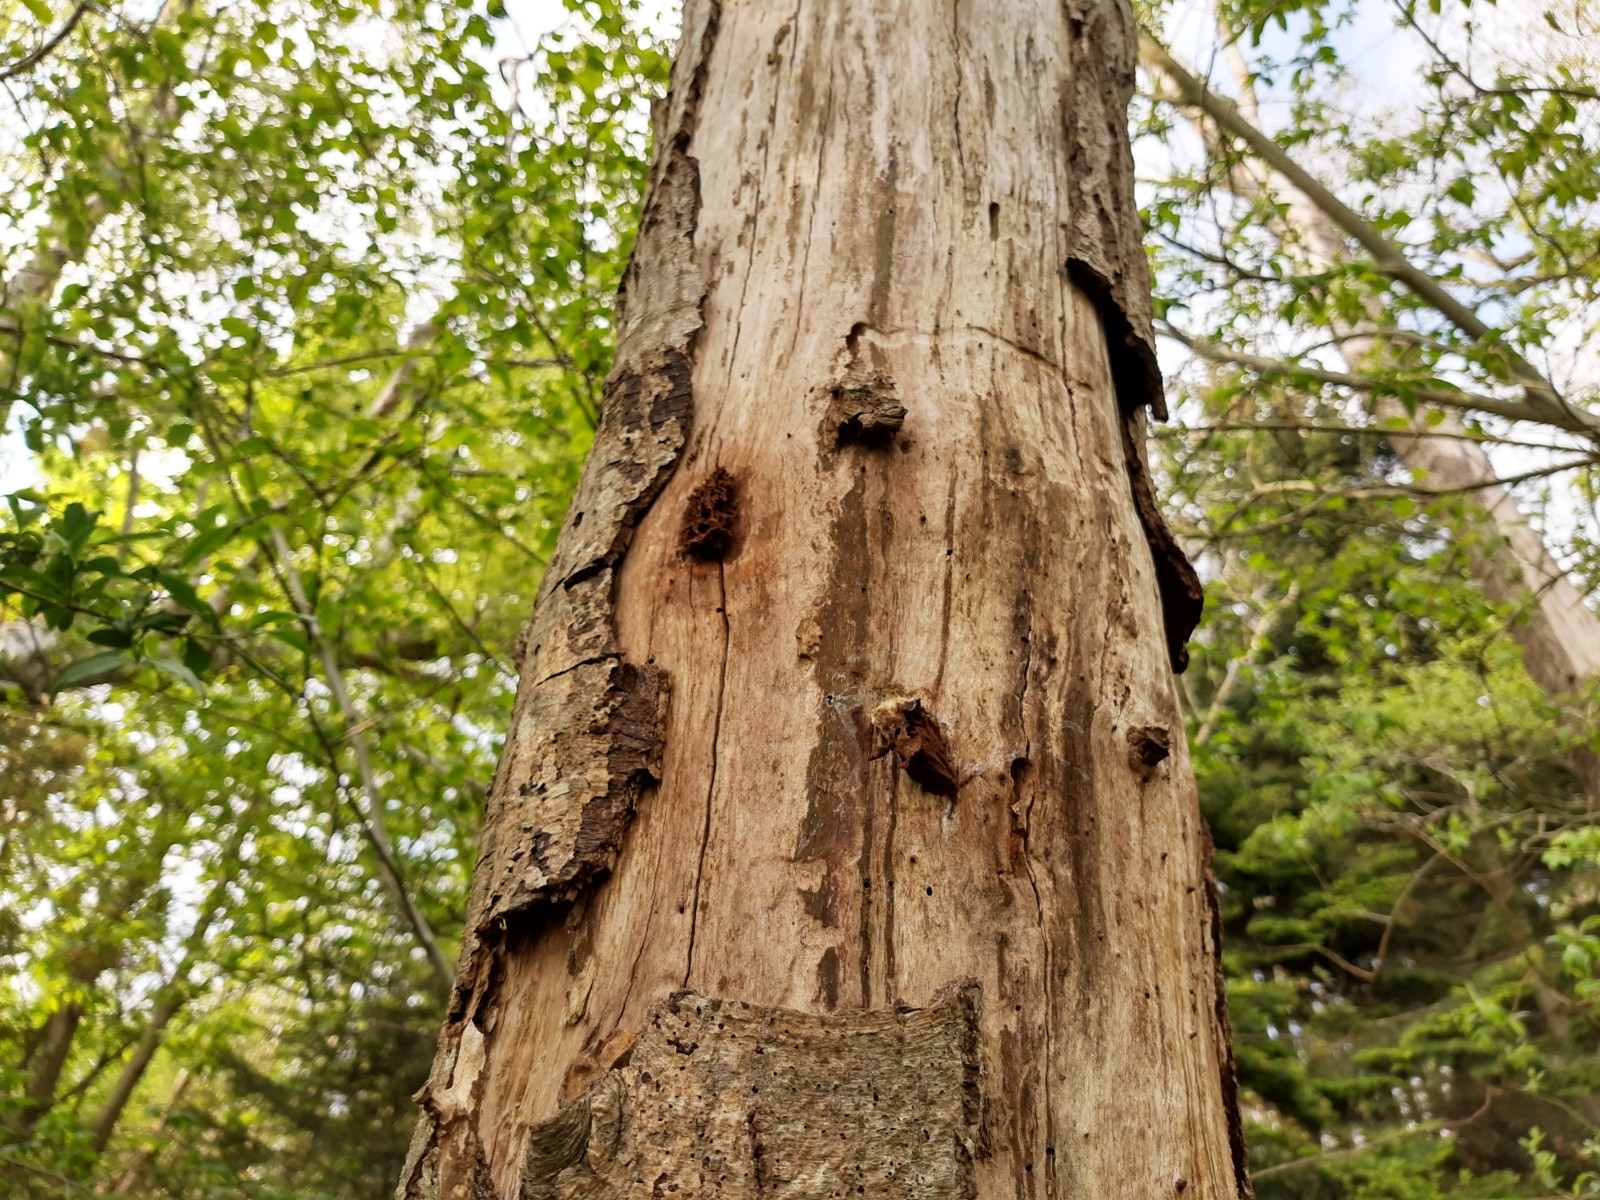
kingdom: Protozoa
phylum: Mycetozoa
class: Myxomycetes
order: Cribrariales
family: Tubiferaceae
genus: Reticularia
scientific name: Reticularia lycoperdon
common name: skinnende støvpude
